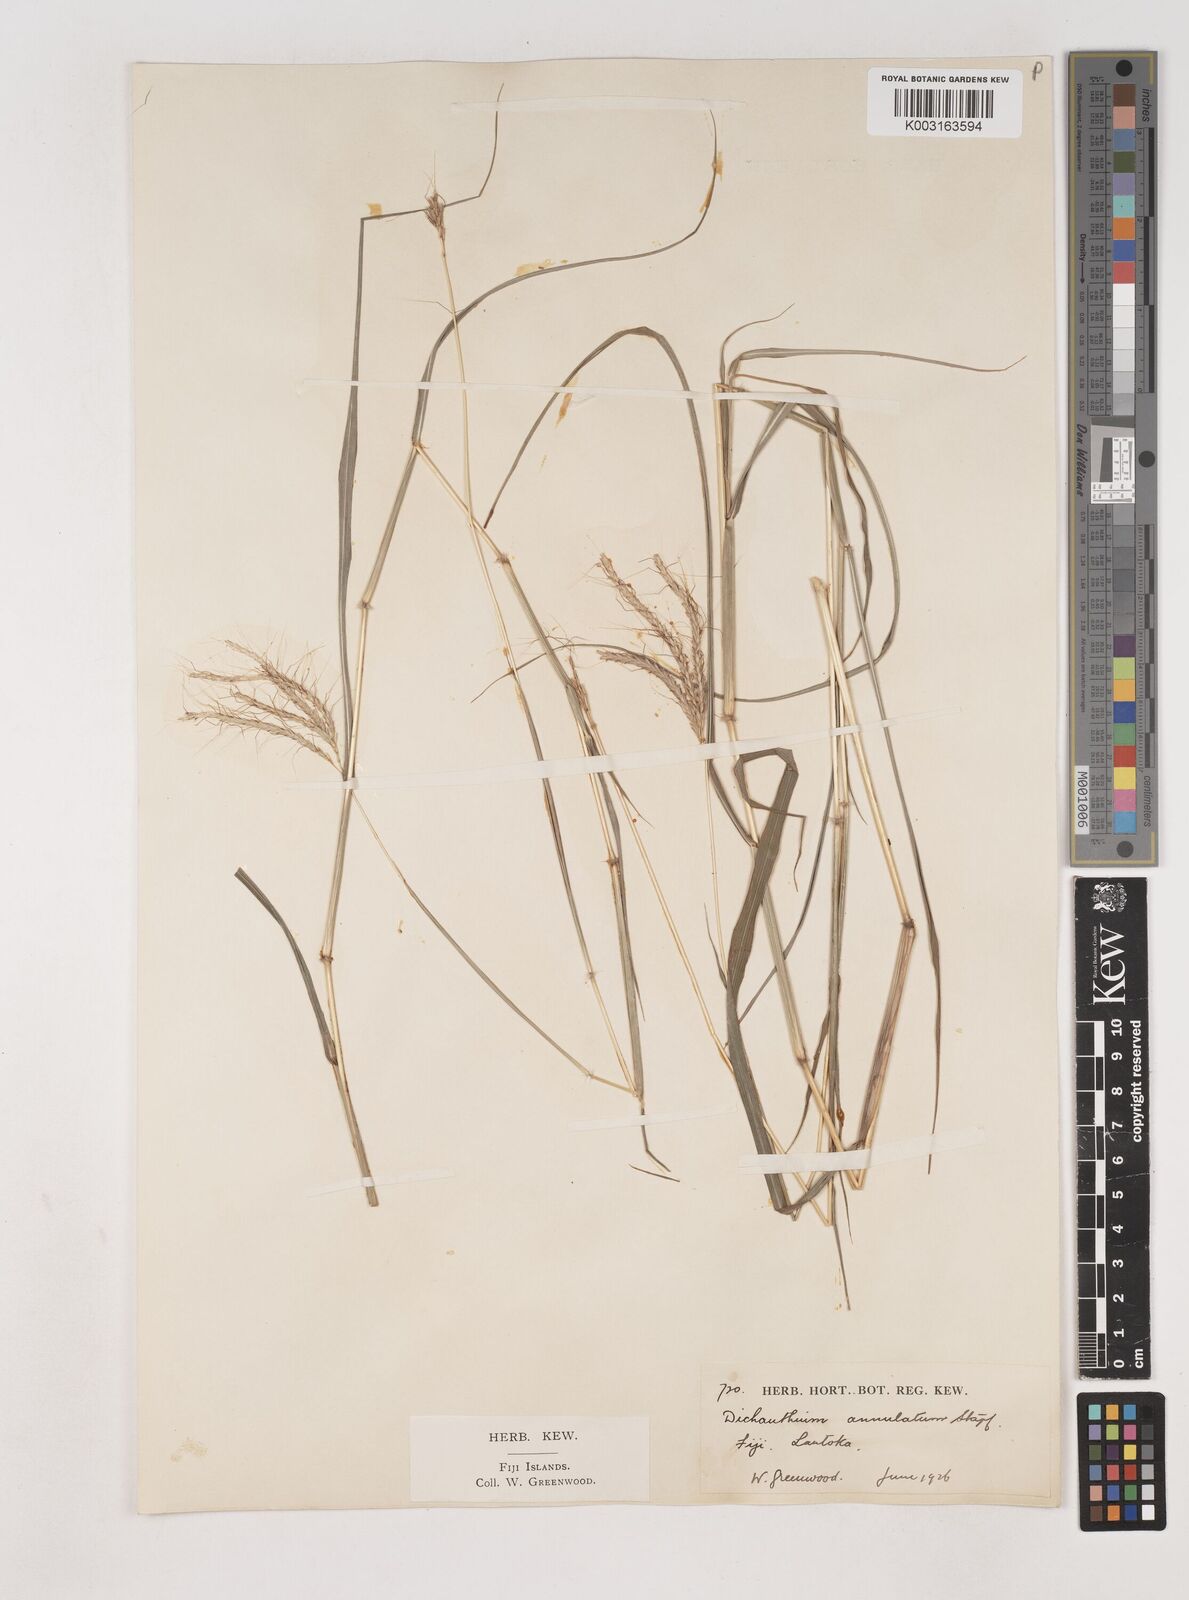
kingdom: Plantae
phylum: Tracheophyta
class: Liliopsida
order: Poales
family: Poaceae
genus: Dichanthium
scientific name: Dichanthium annulatum
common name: Kleberg's bluestem
